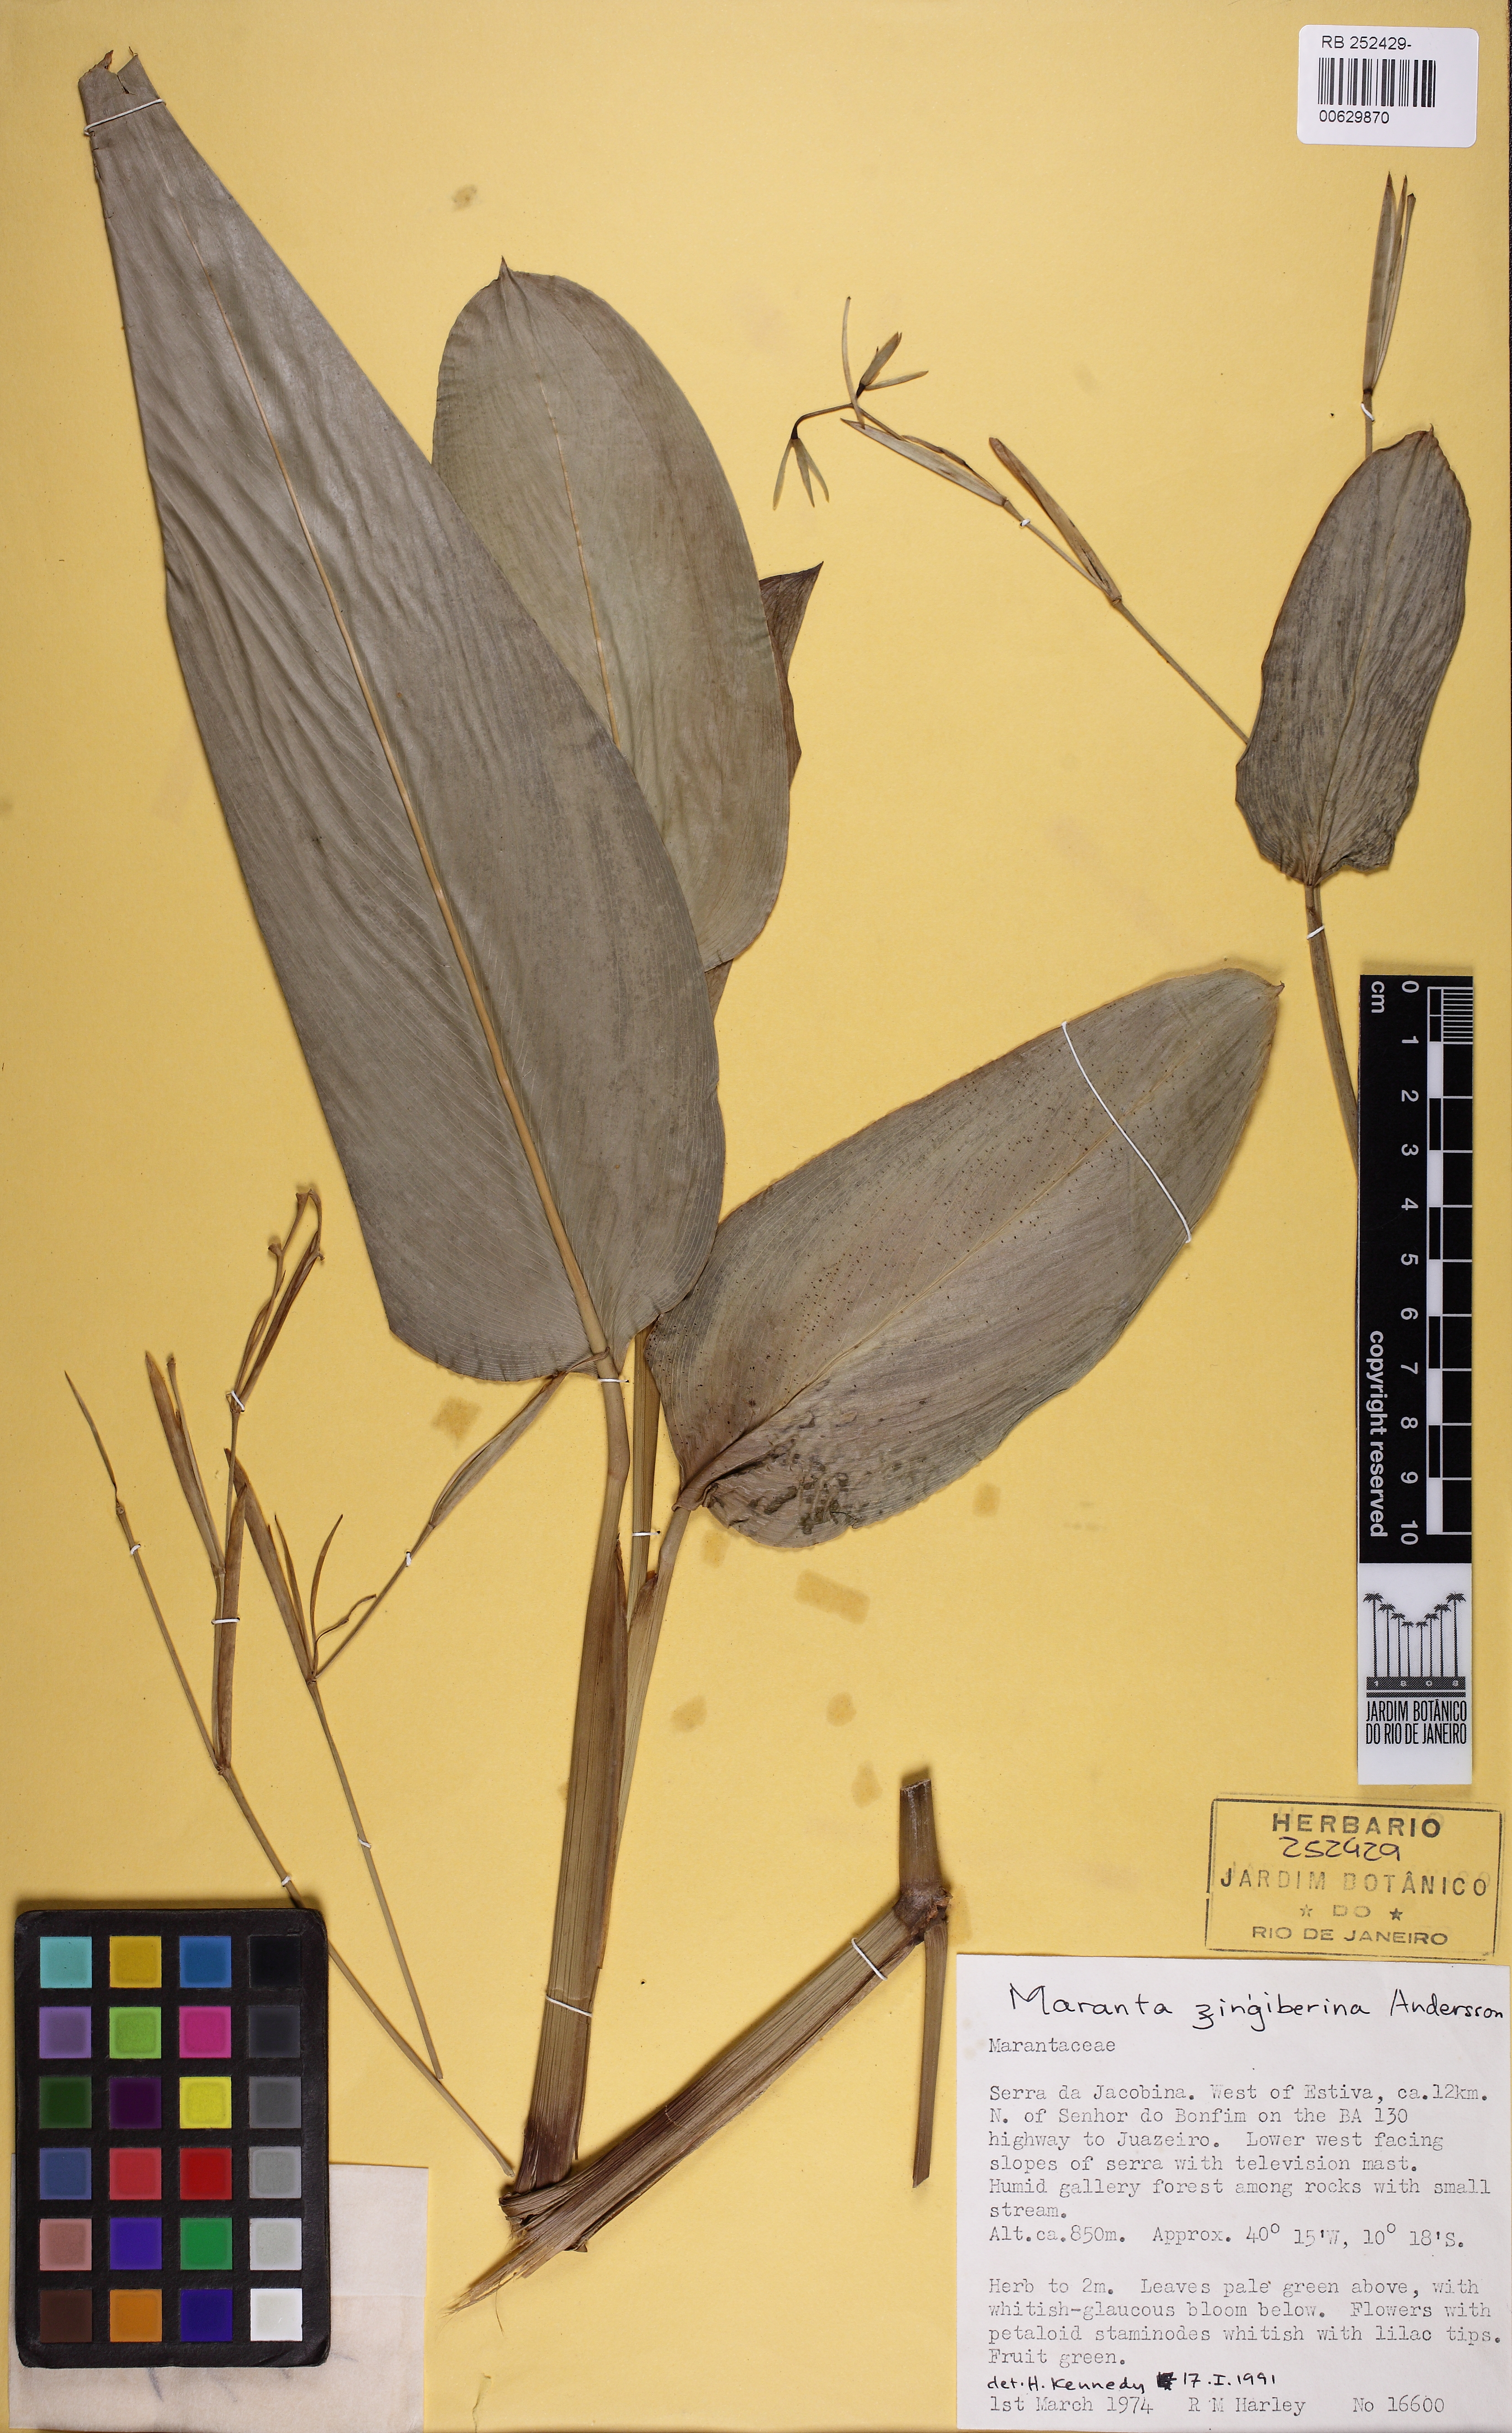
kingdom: Plantae
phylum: Tracheophyta
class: Liliopsida
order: Zingiberales
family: Marantaceae
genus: Maranta
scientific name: Maranta zingiberina
